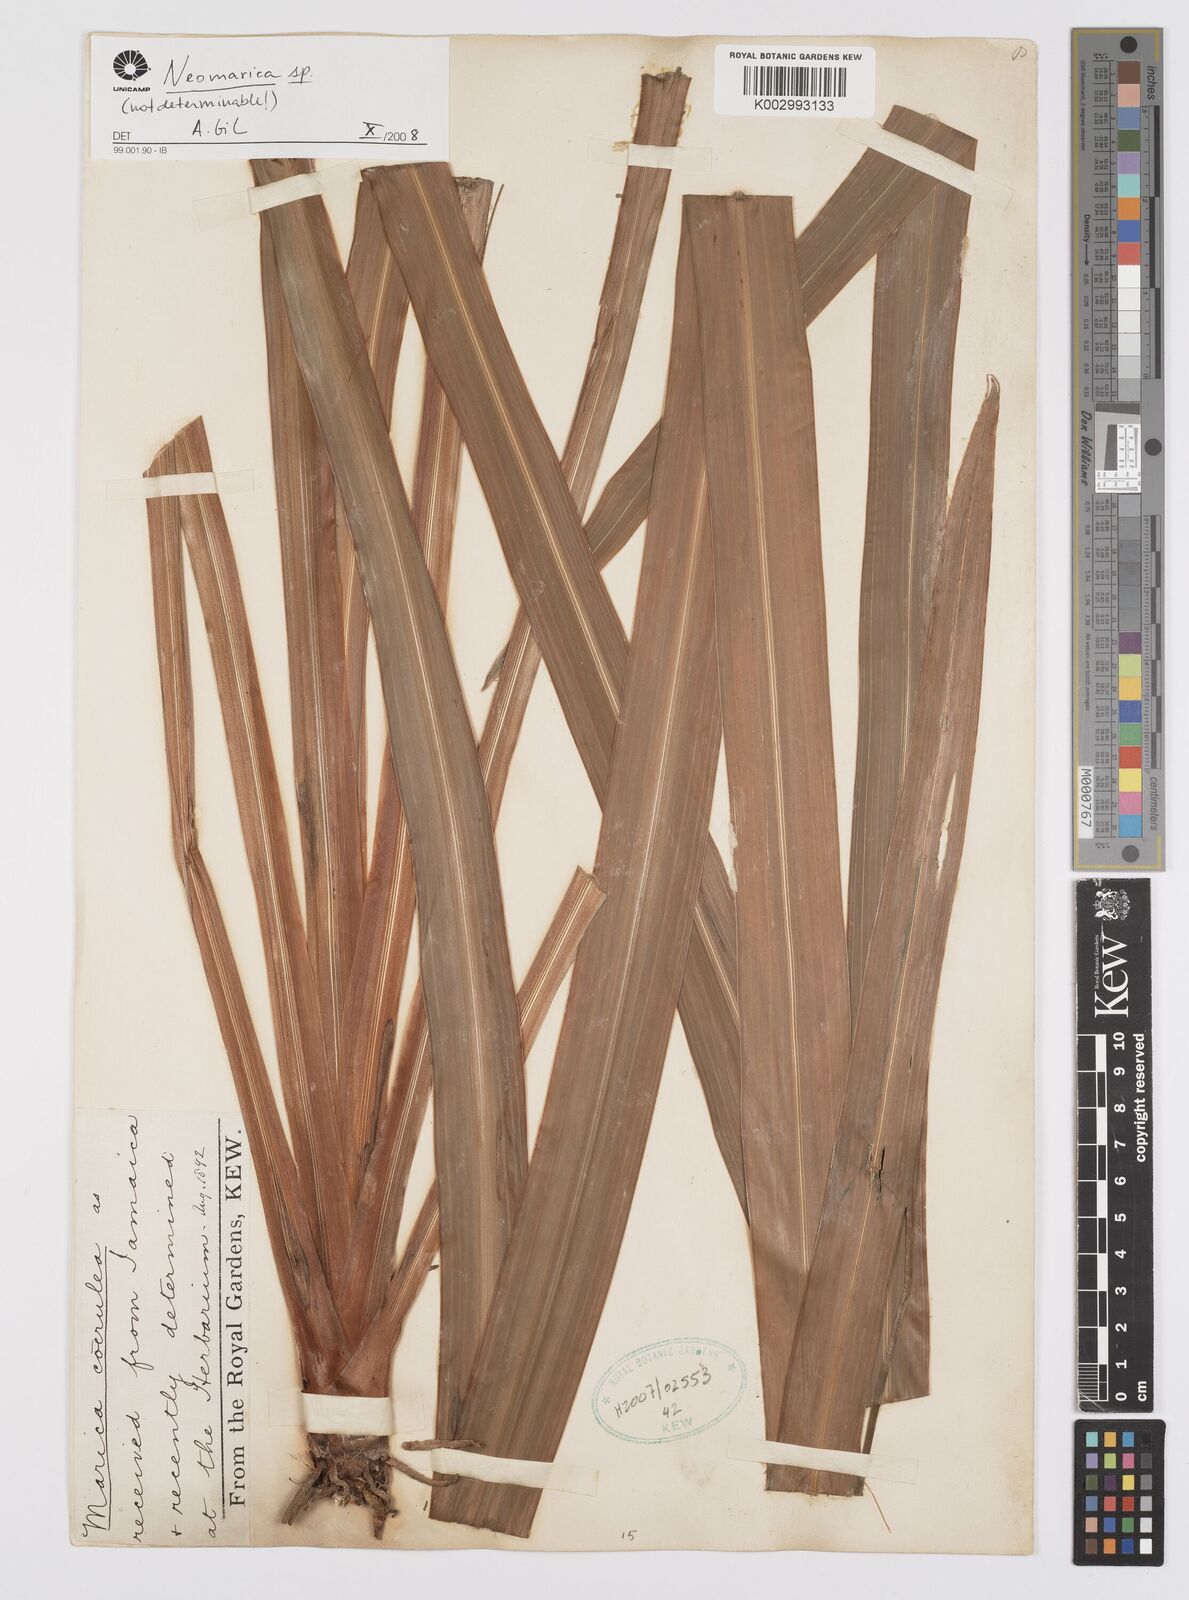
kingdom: Plantae
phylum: Tracheophyta
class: Liliopsida
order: Asparagales
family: Iridaceae
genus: Trimezia
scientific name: Trimezia brachypus
